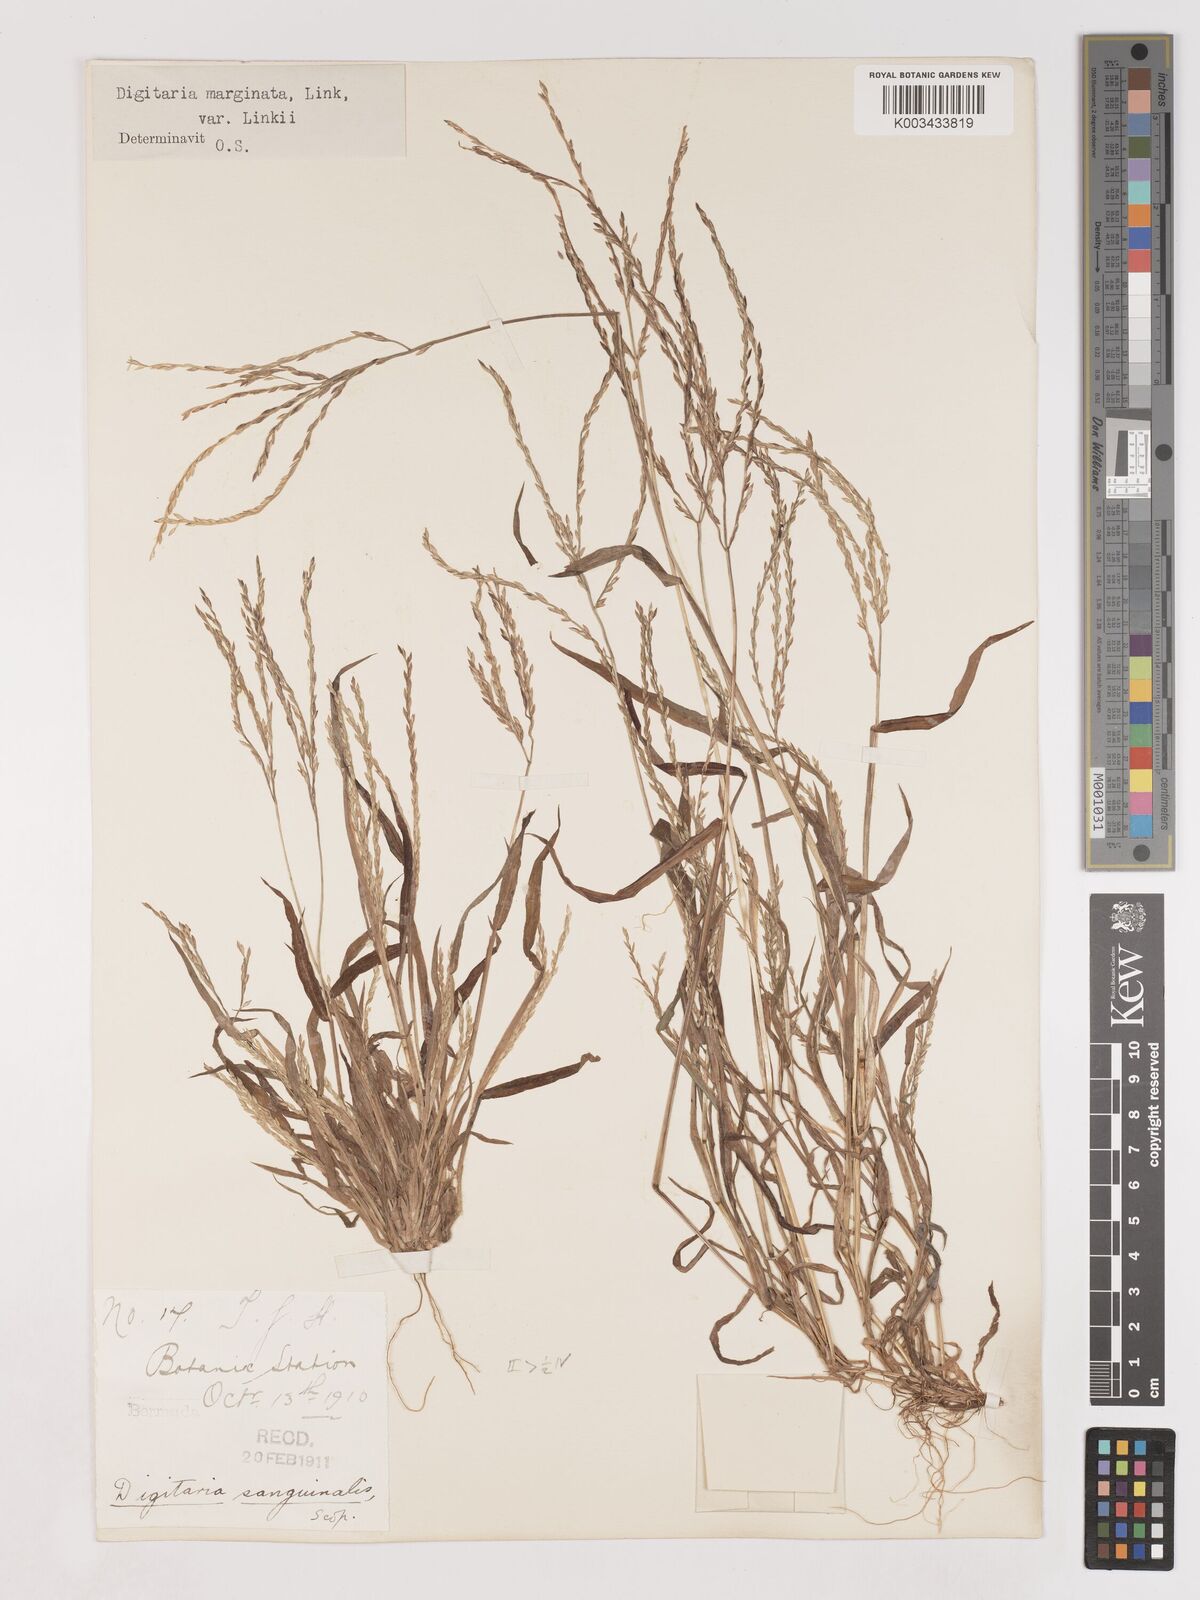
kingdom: Plantae
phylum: Tracheophyta
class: Liliopsida
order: Poales
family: Poaceae
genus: Digitaria
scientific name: Digitaria ciliaris
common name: Tropical finger-grass
